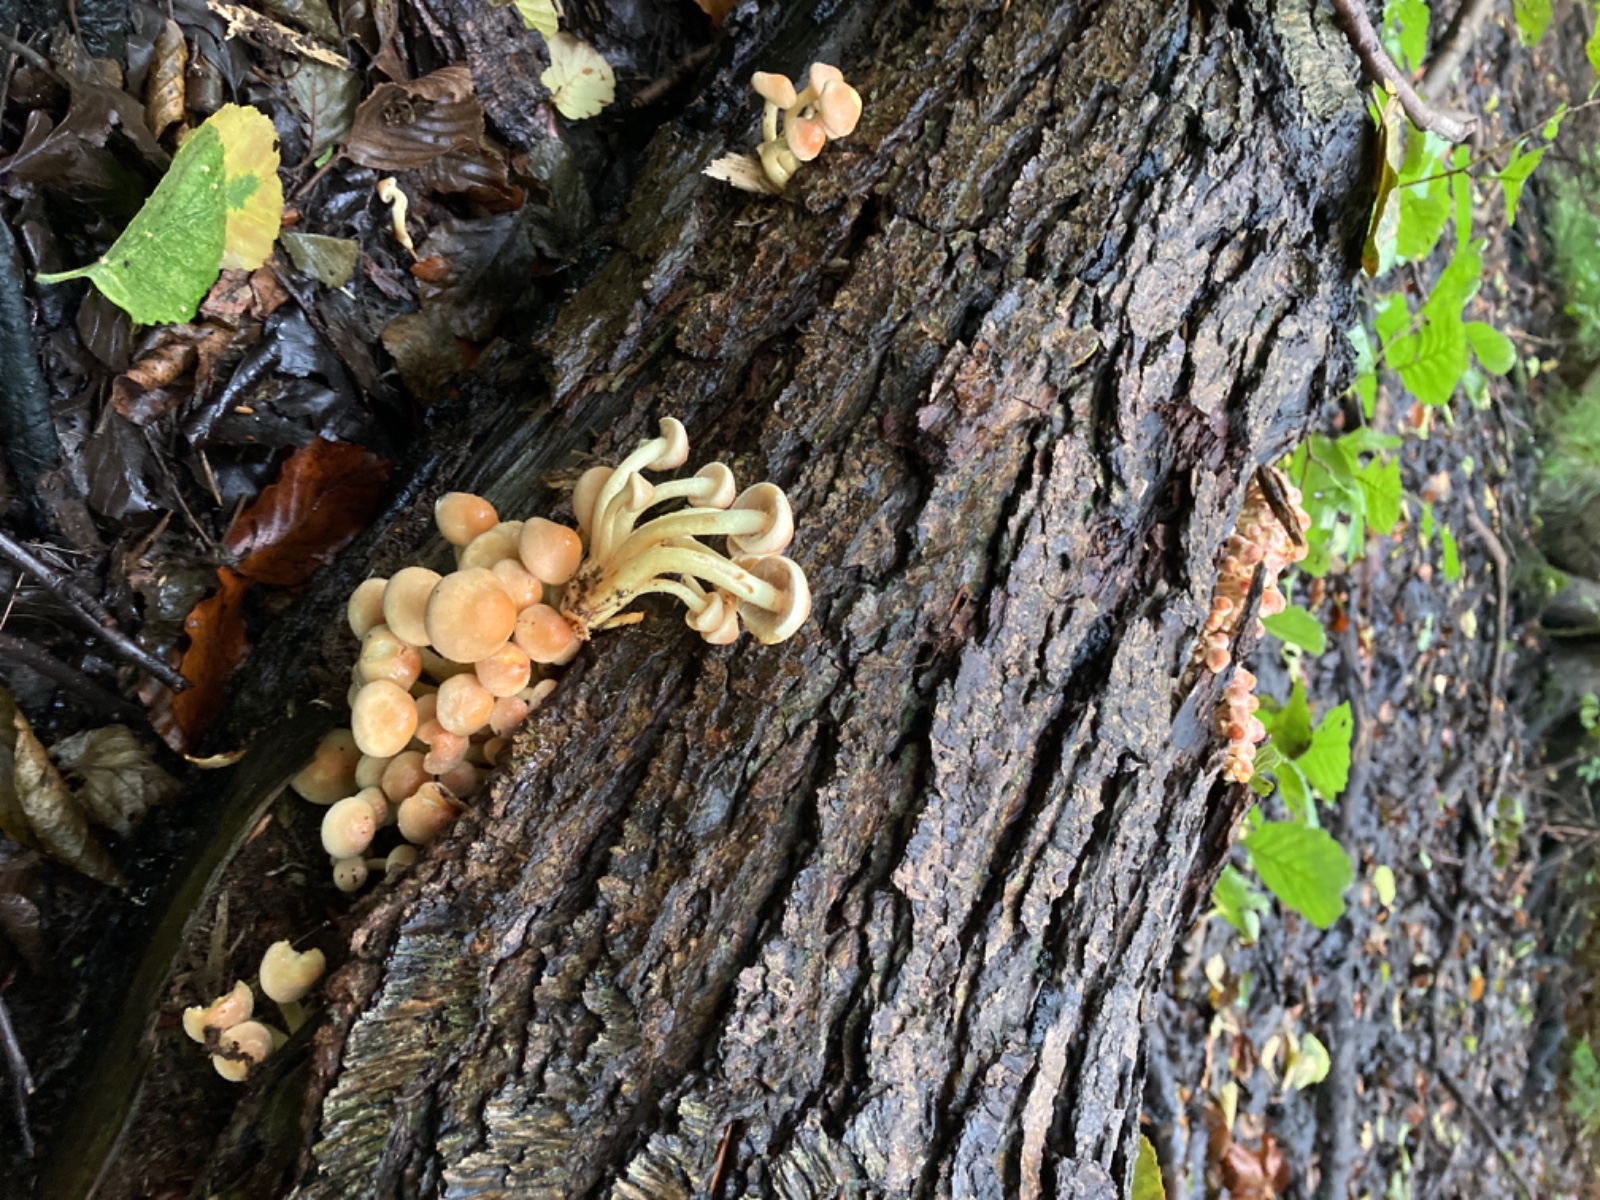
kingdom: Fungi
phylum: Basidiomycota
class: Agaricomycetes
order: Agaricales
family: Strophariaceae
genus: Hypholoma
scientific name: Hypholoma fasciculare
